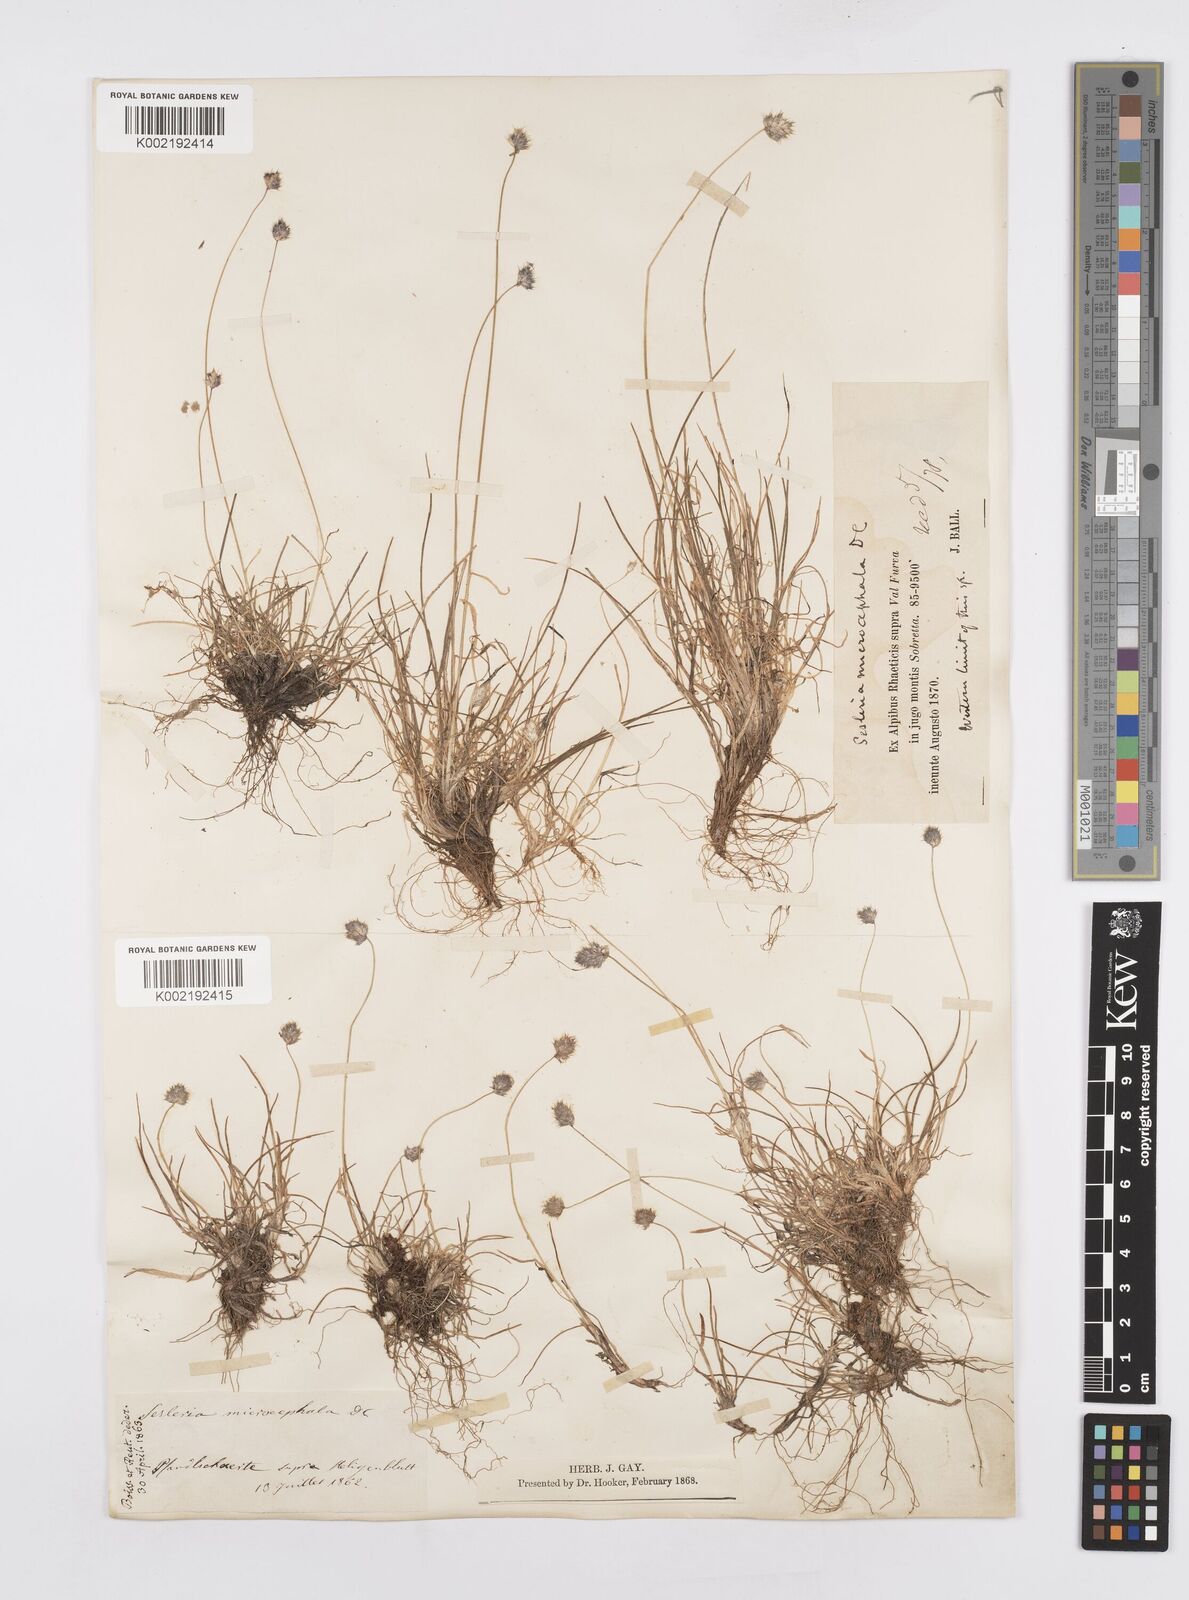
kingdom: Plantae
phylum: Tracheophyta
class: Liliopsida
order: Poales
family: Poaceae
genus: Psilathera
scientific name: Psilathera ovata
